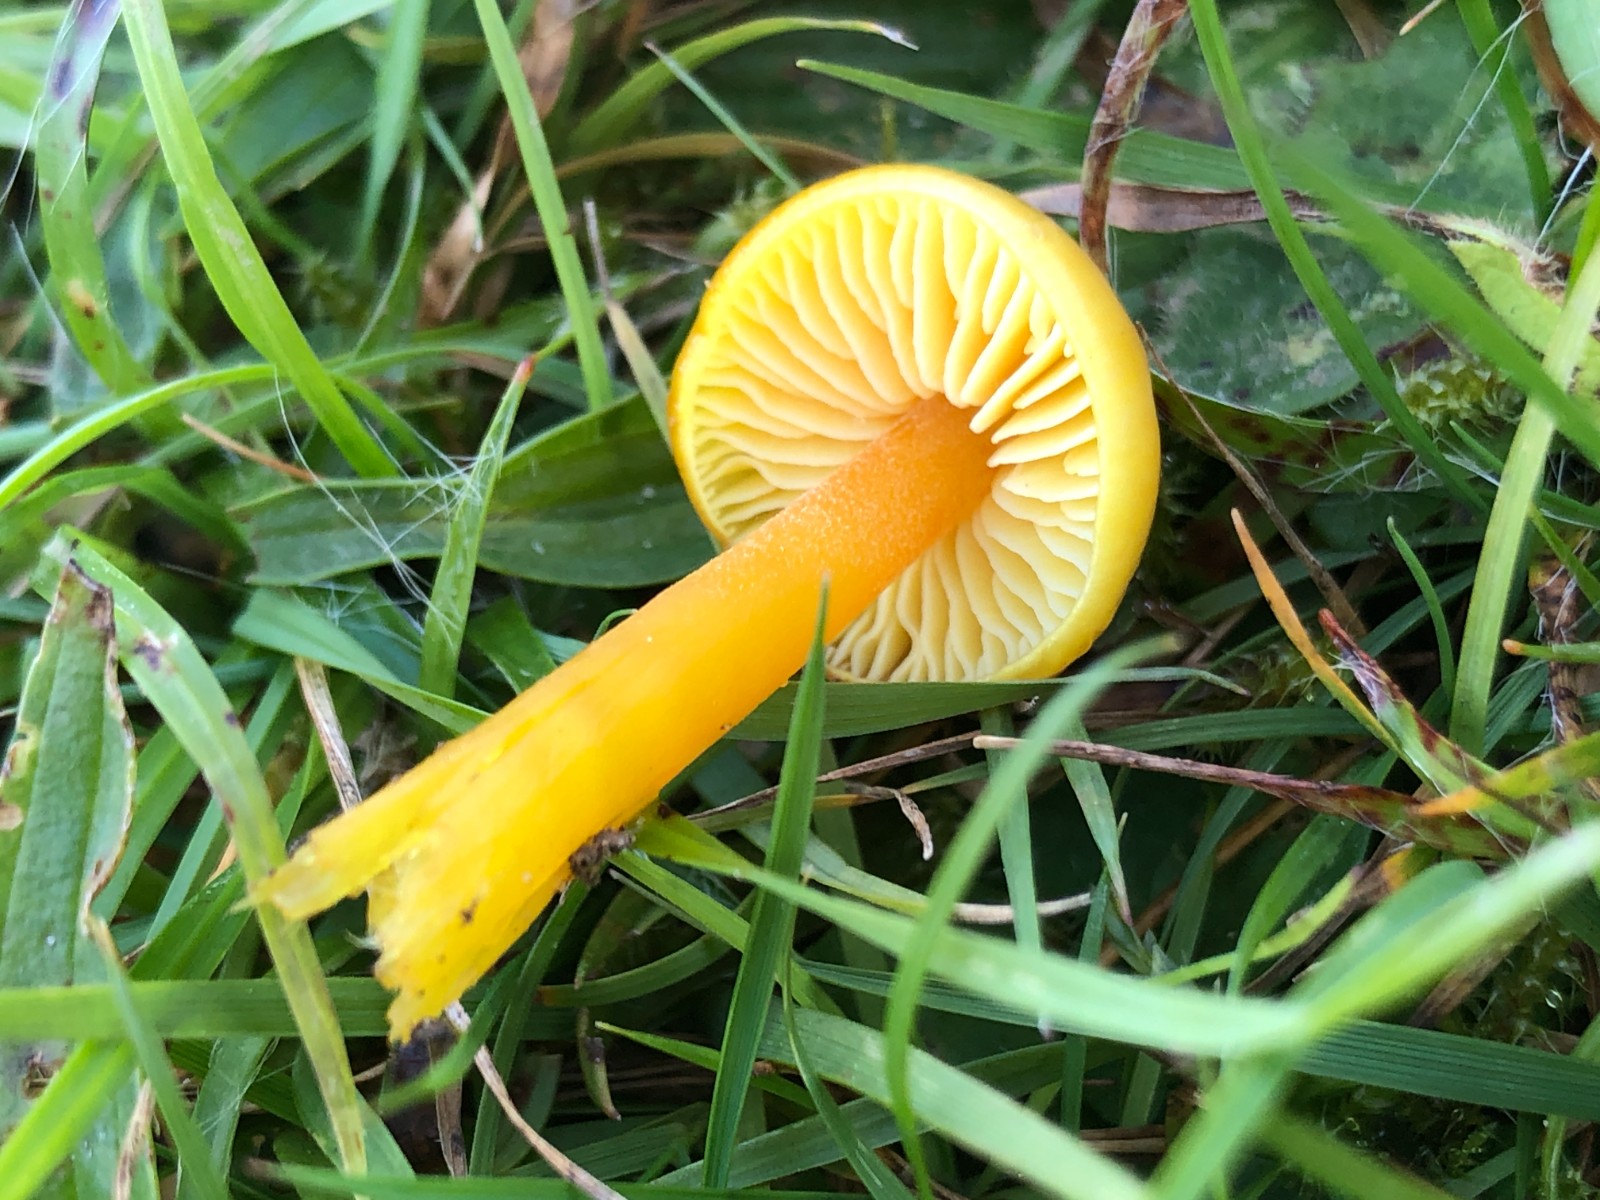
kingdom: Fungi
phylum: Basidiomycota
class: Agaricomycetes
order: Agaricales
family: Hygrophoraceae
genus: Hygrocybe
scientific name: Hygrocybe chlorophana
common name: gul vokshat
